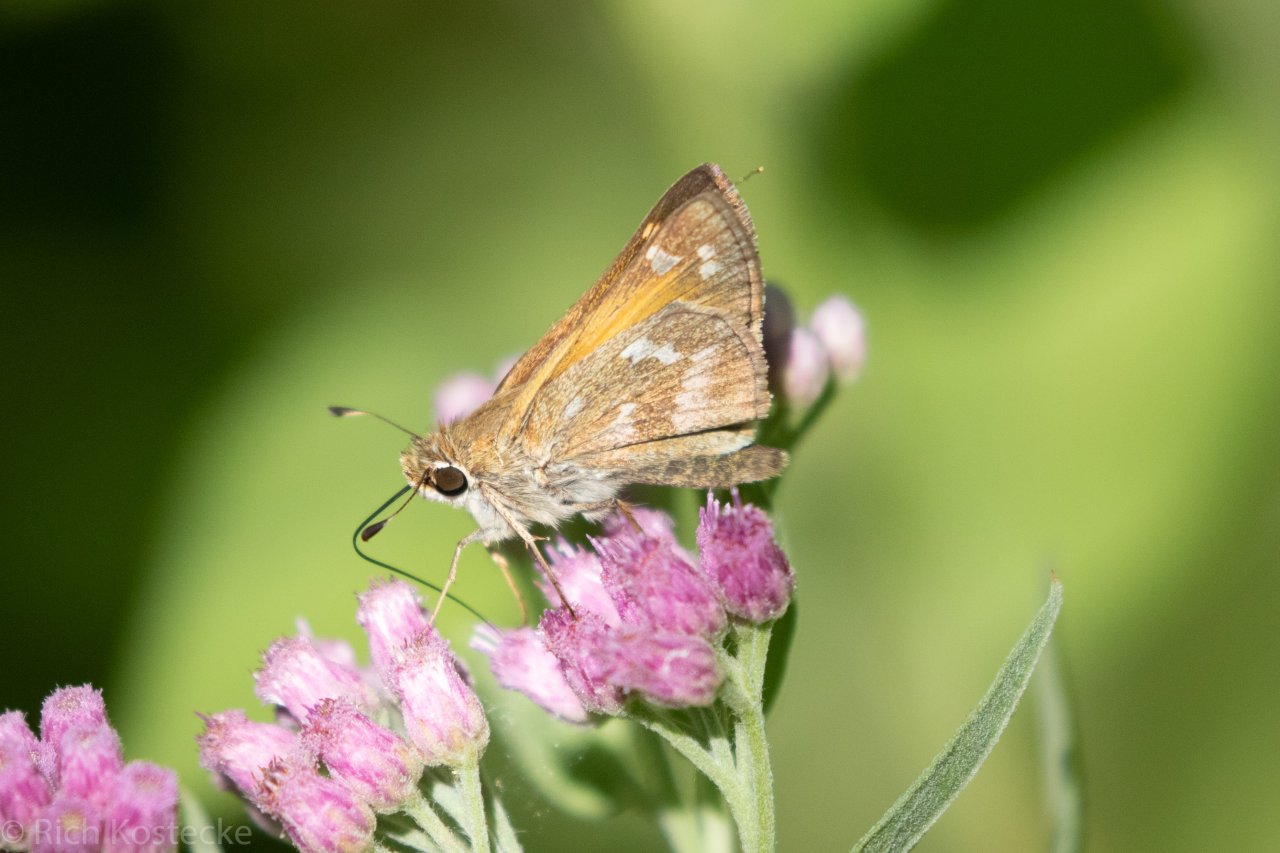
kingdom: Animalia
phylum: Arthropoda
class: Insecta
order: Lepidoptera
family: Hesperiidae
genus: Atalopedes
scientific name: Atalopedes campestris
